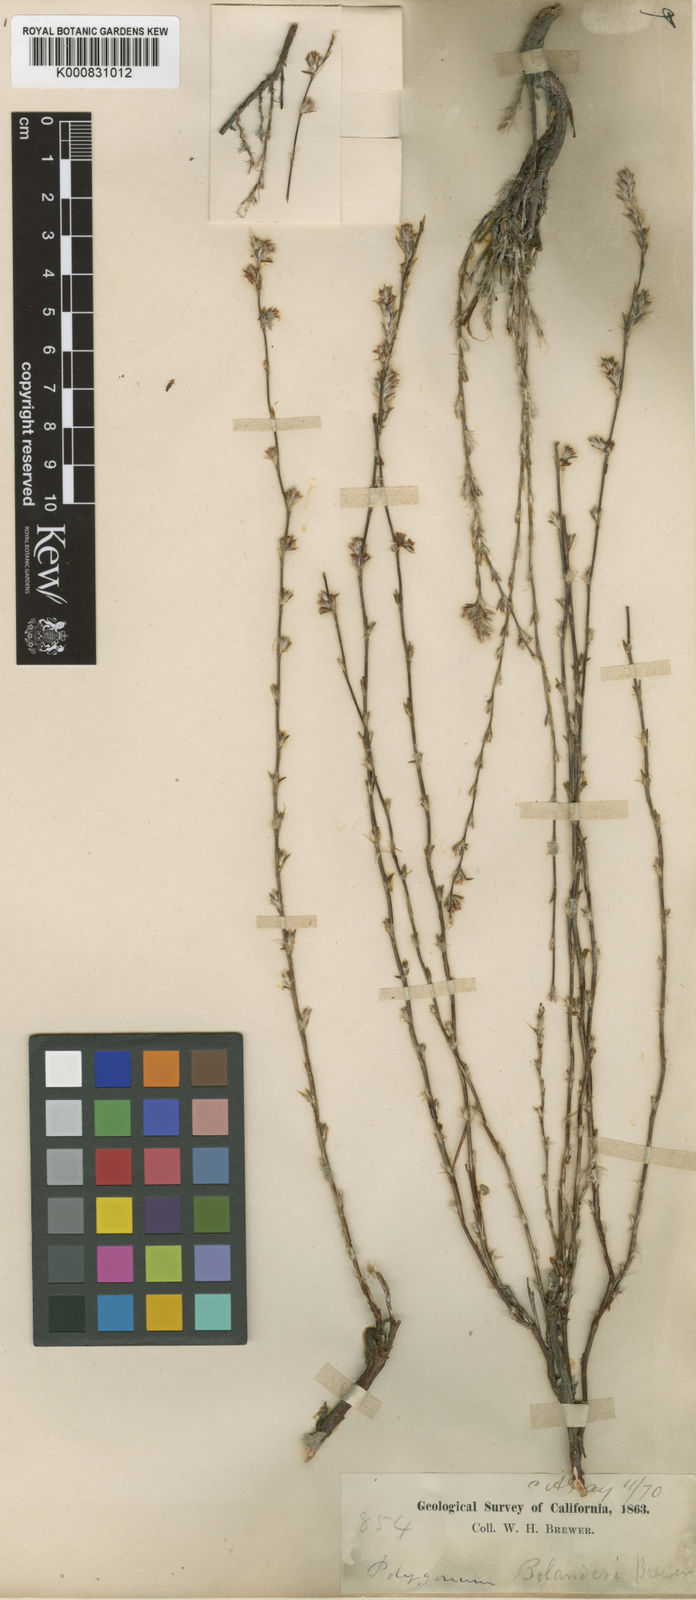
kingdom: Plantae
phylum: Tracheophyta
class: Magnoliopsida
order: Caryophyllales
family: Polygonaceae
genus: Polygonum
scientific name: Polygonum
